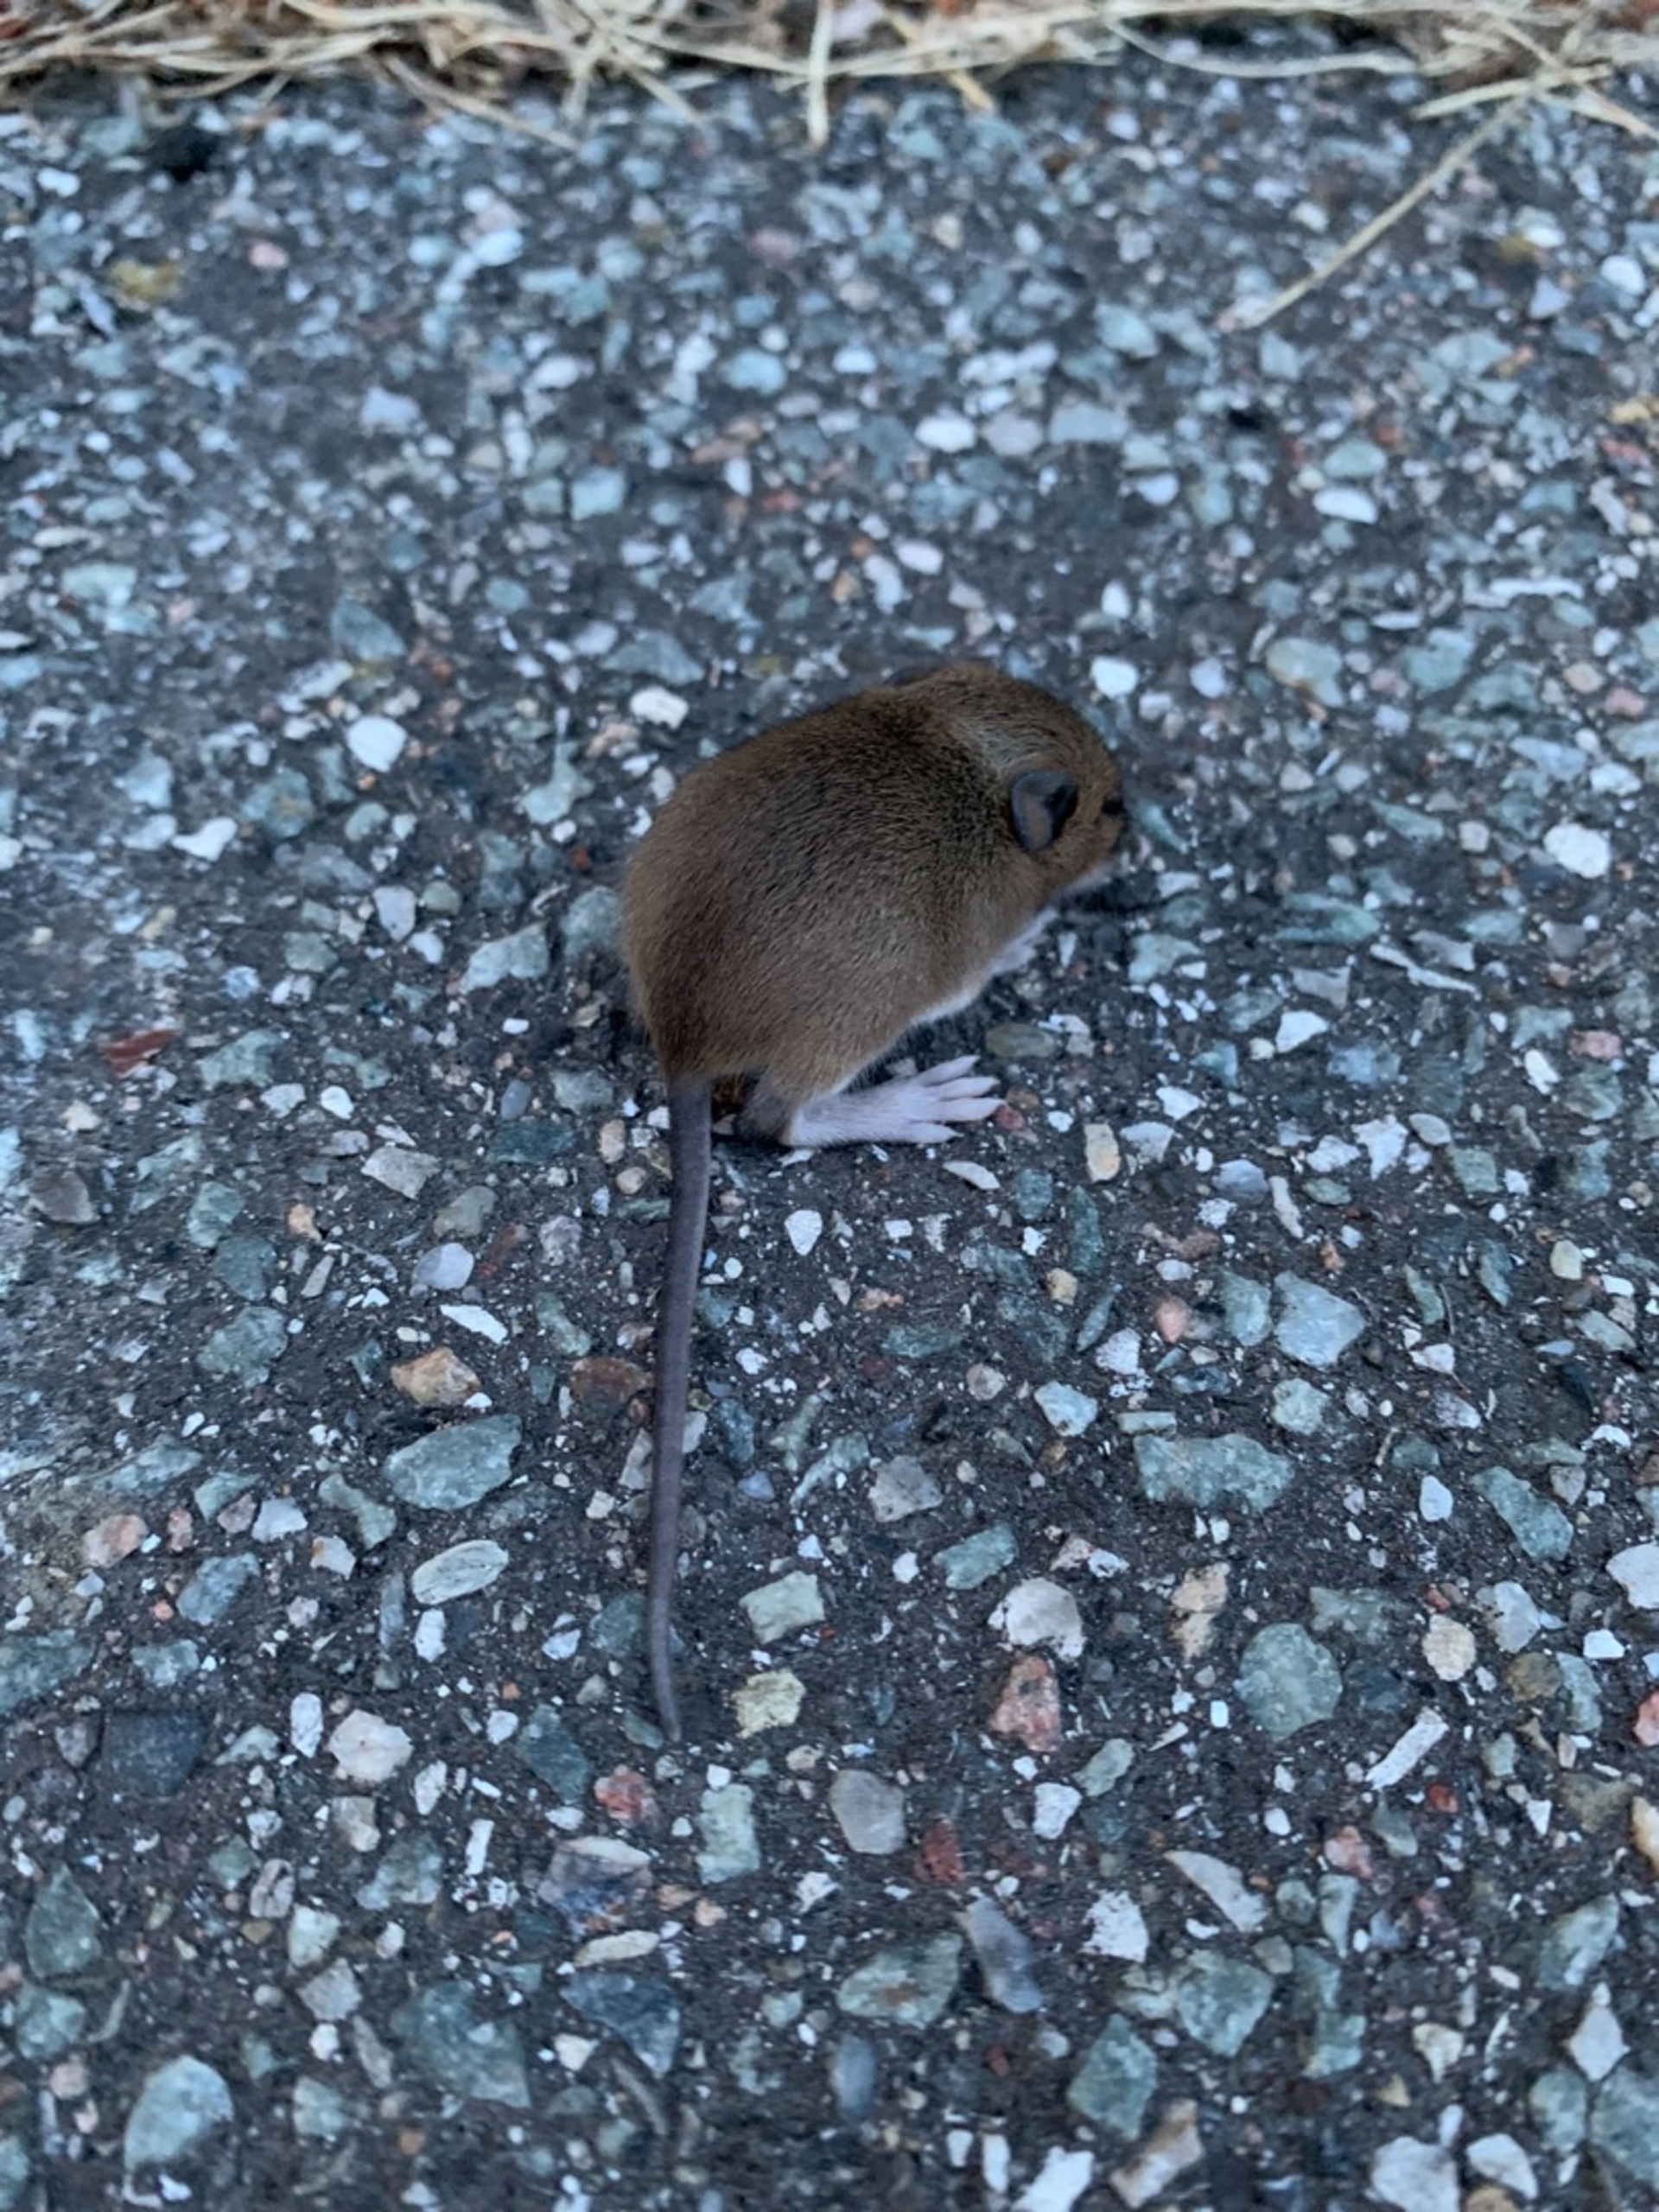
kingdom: Animalia
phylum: Chordata
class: Mammalia
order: Rodentia
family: Muridae
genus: Rattus
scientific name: Rattus norvegicus
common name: Brun rotte
